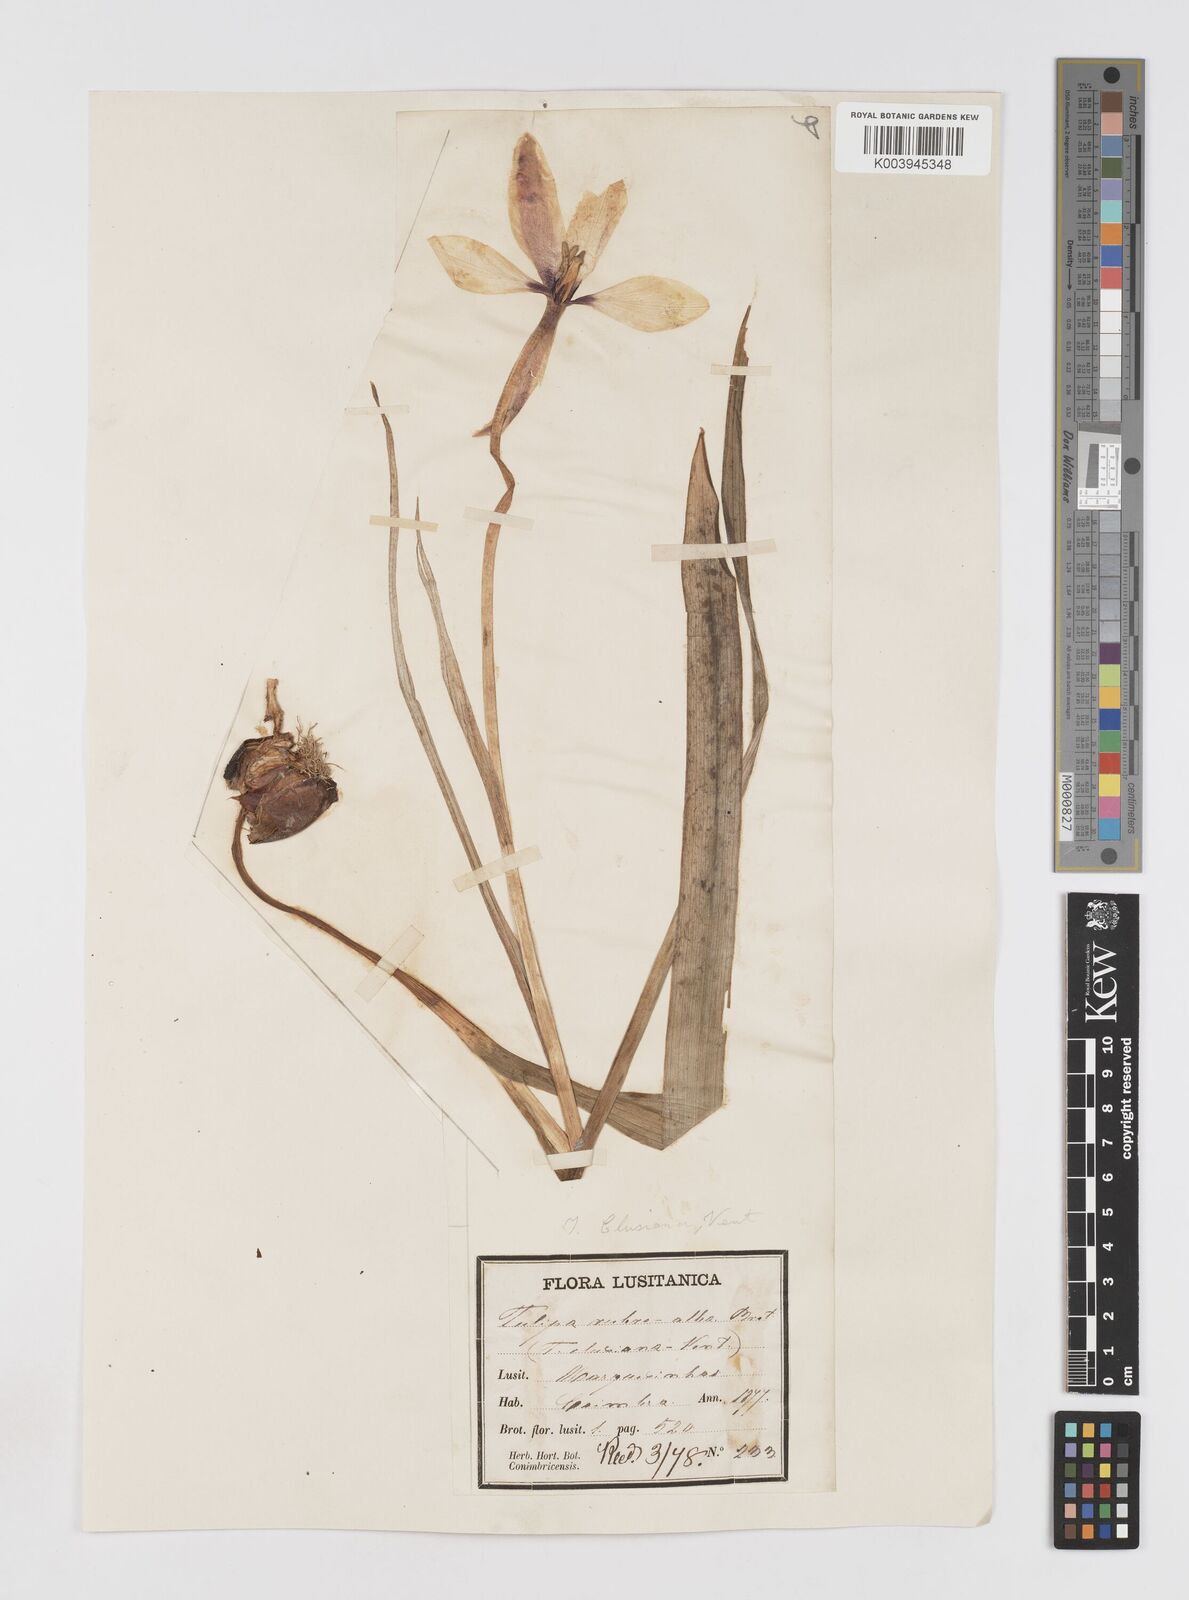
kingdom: Plantae
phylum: Tracheophyta
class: Liliopsida
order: Liliales
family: Liliaceae
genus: Tulipa
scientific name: Tulipa clusiana
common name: Lady tulip
